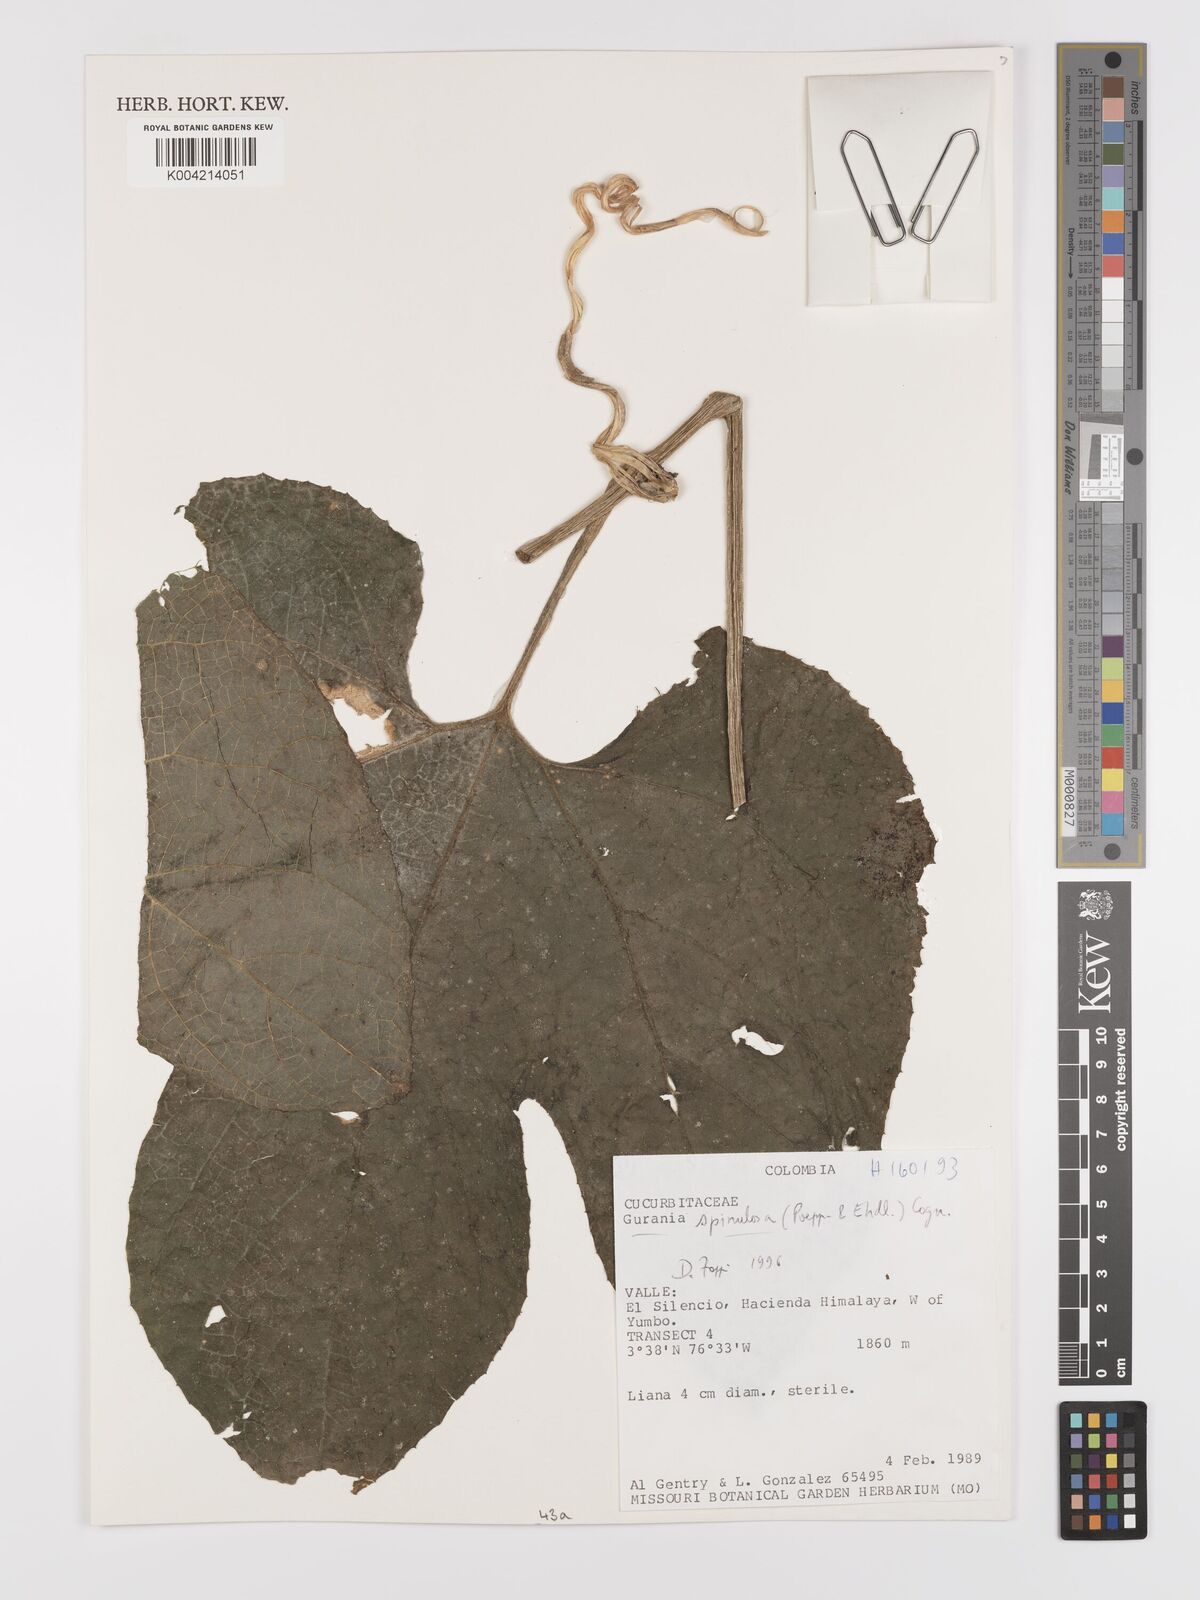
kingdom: Plantae
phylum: Tracheophyta
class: Magnoliopsida
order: Cucurbitales
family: Cucurbitaceae
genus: Gurania
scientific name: Gurania lobata
